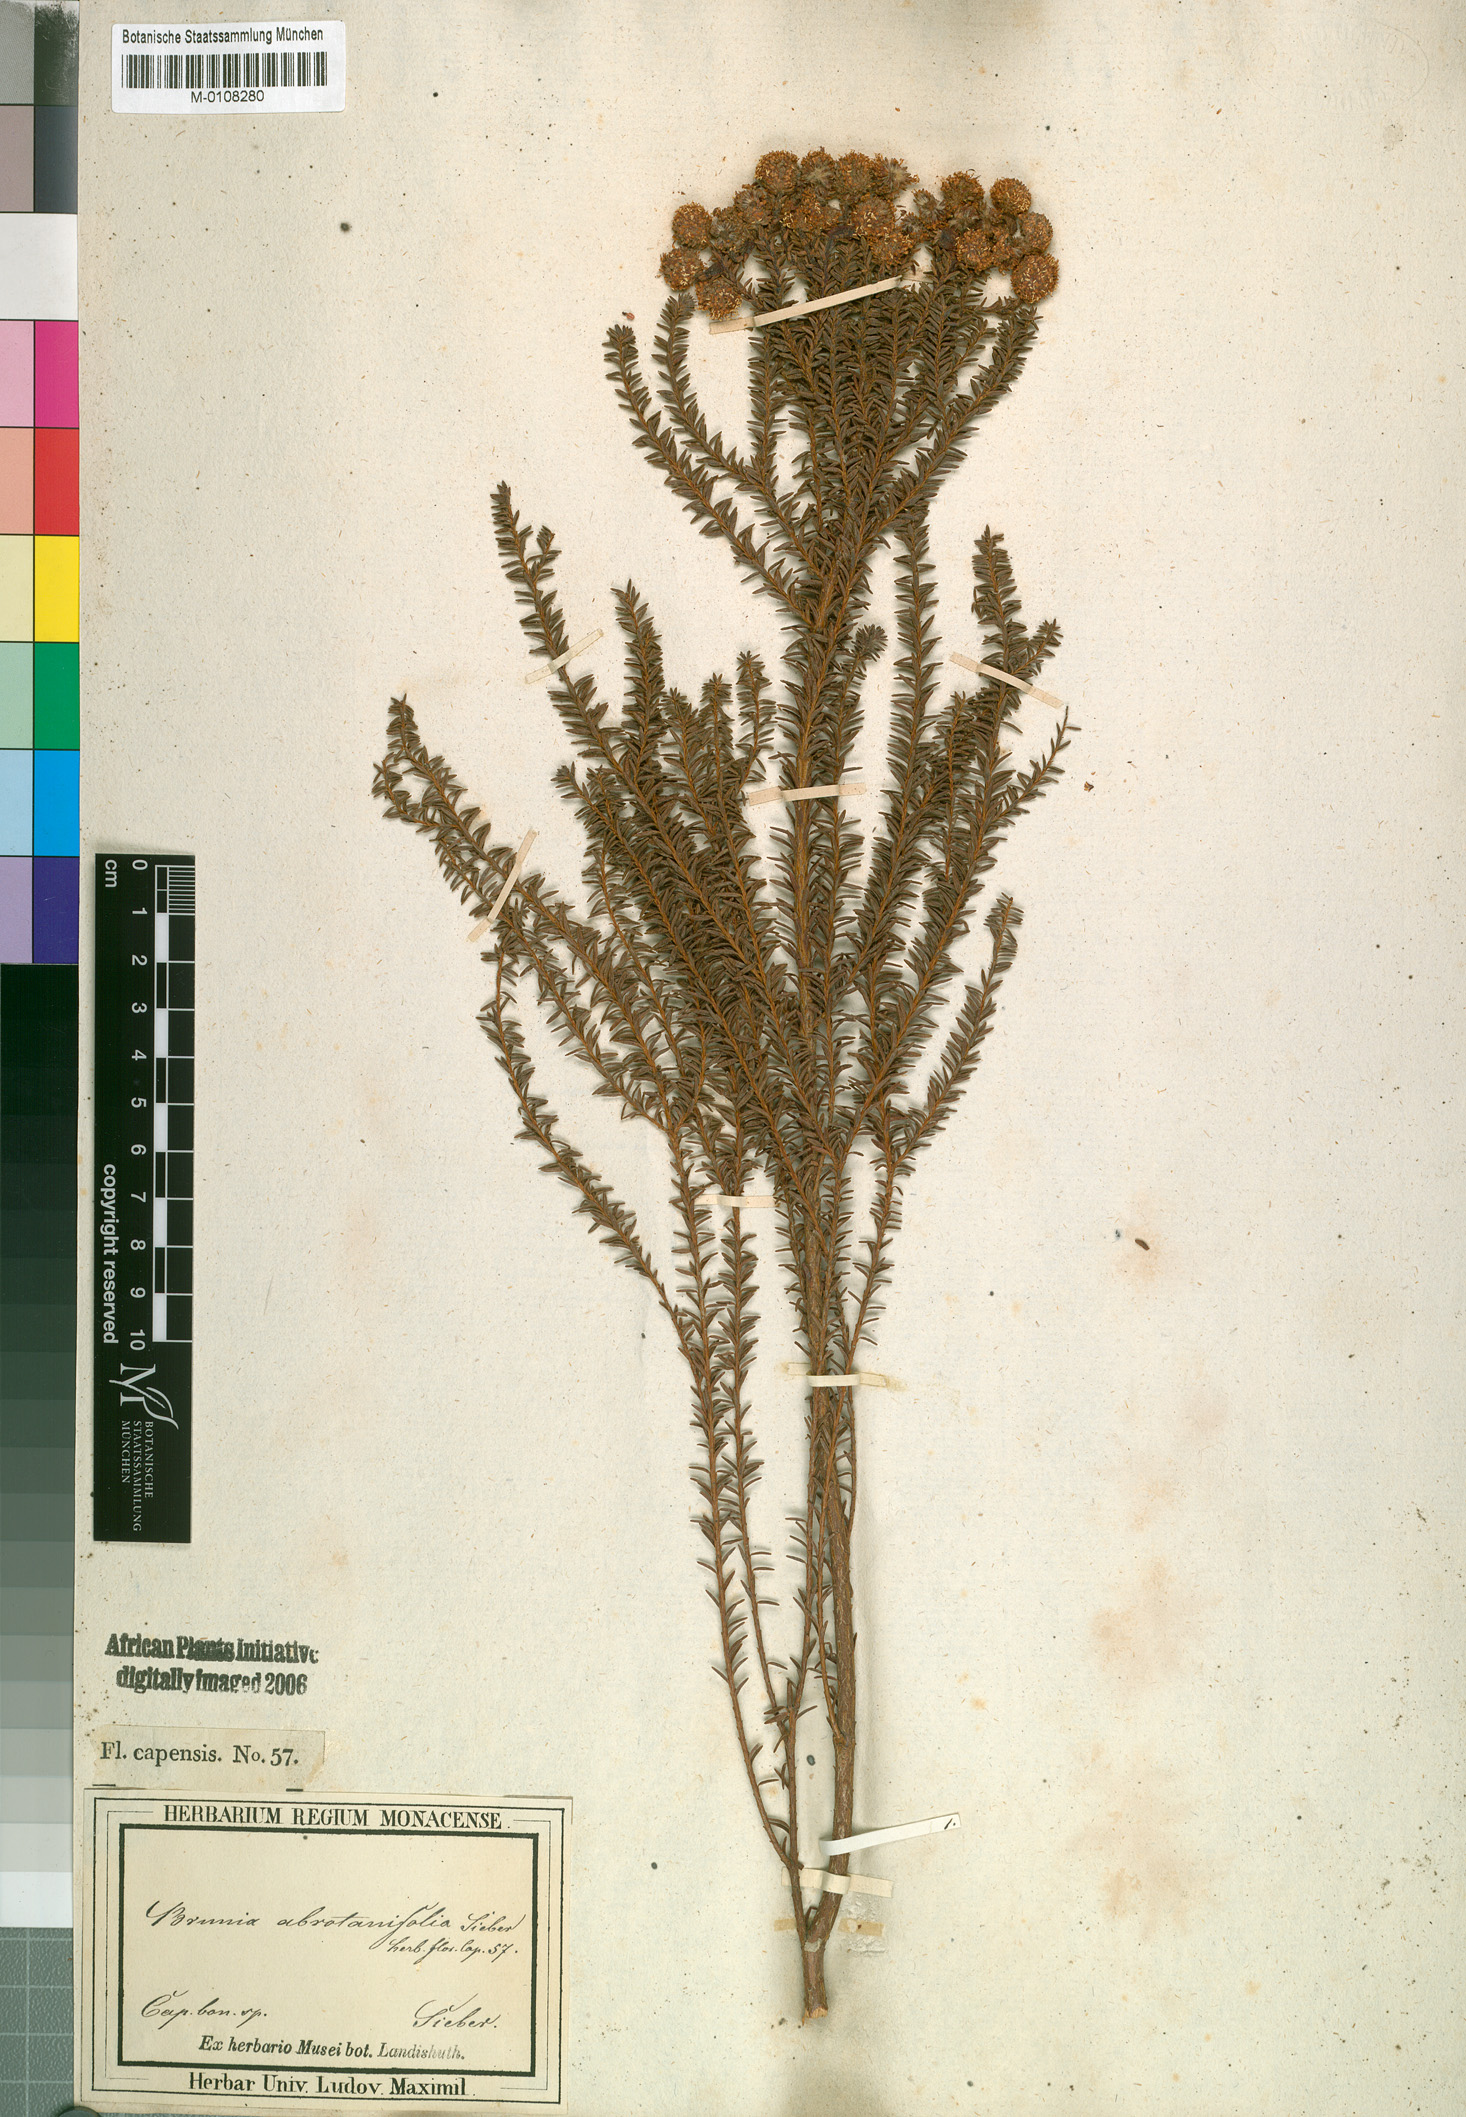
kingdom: Plantae
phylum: Tracheophyta
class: Magnoliopsida
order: Bruniales
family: Bruniaceae
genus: Berzelia
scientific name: Berzelia abrotanoides
